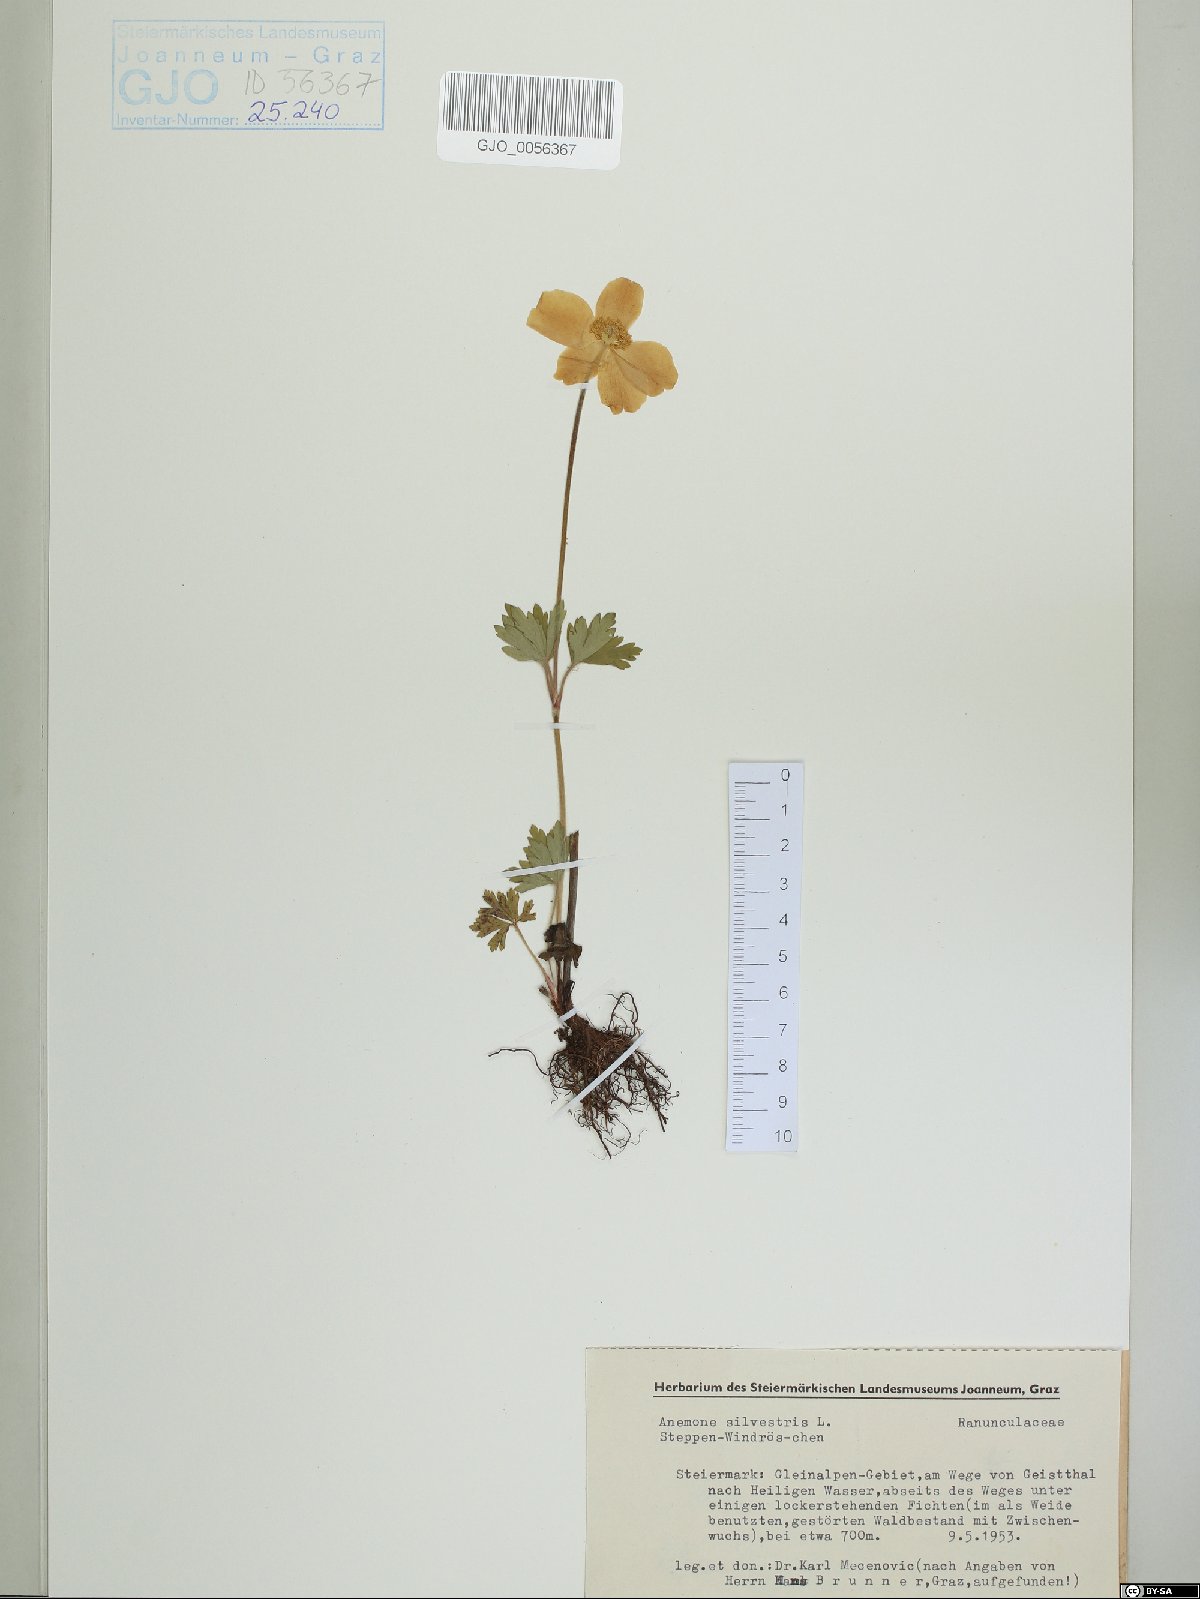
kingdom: Plantae
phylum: Tracheophyta
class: Magnoliopsida
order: Ranunculales
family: Ranunculaceae
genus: Anemone
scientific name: Anemone sylvestris
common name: Snowdrop anemone
